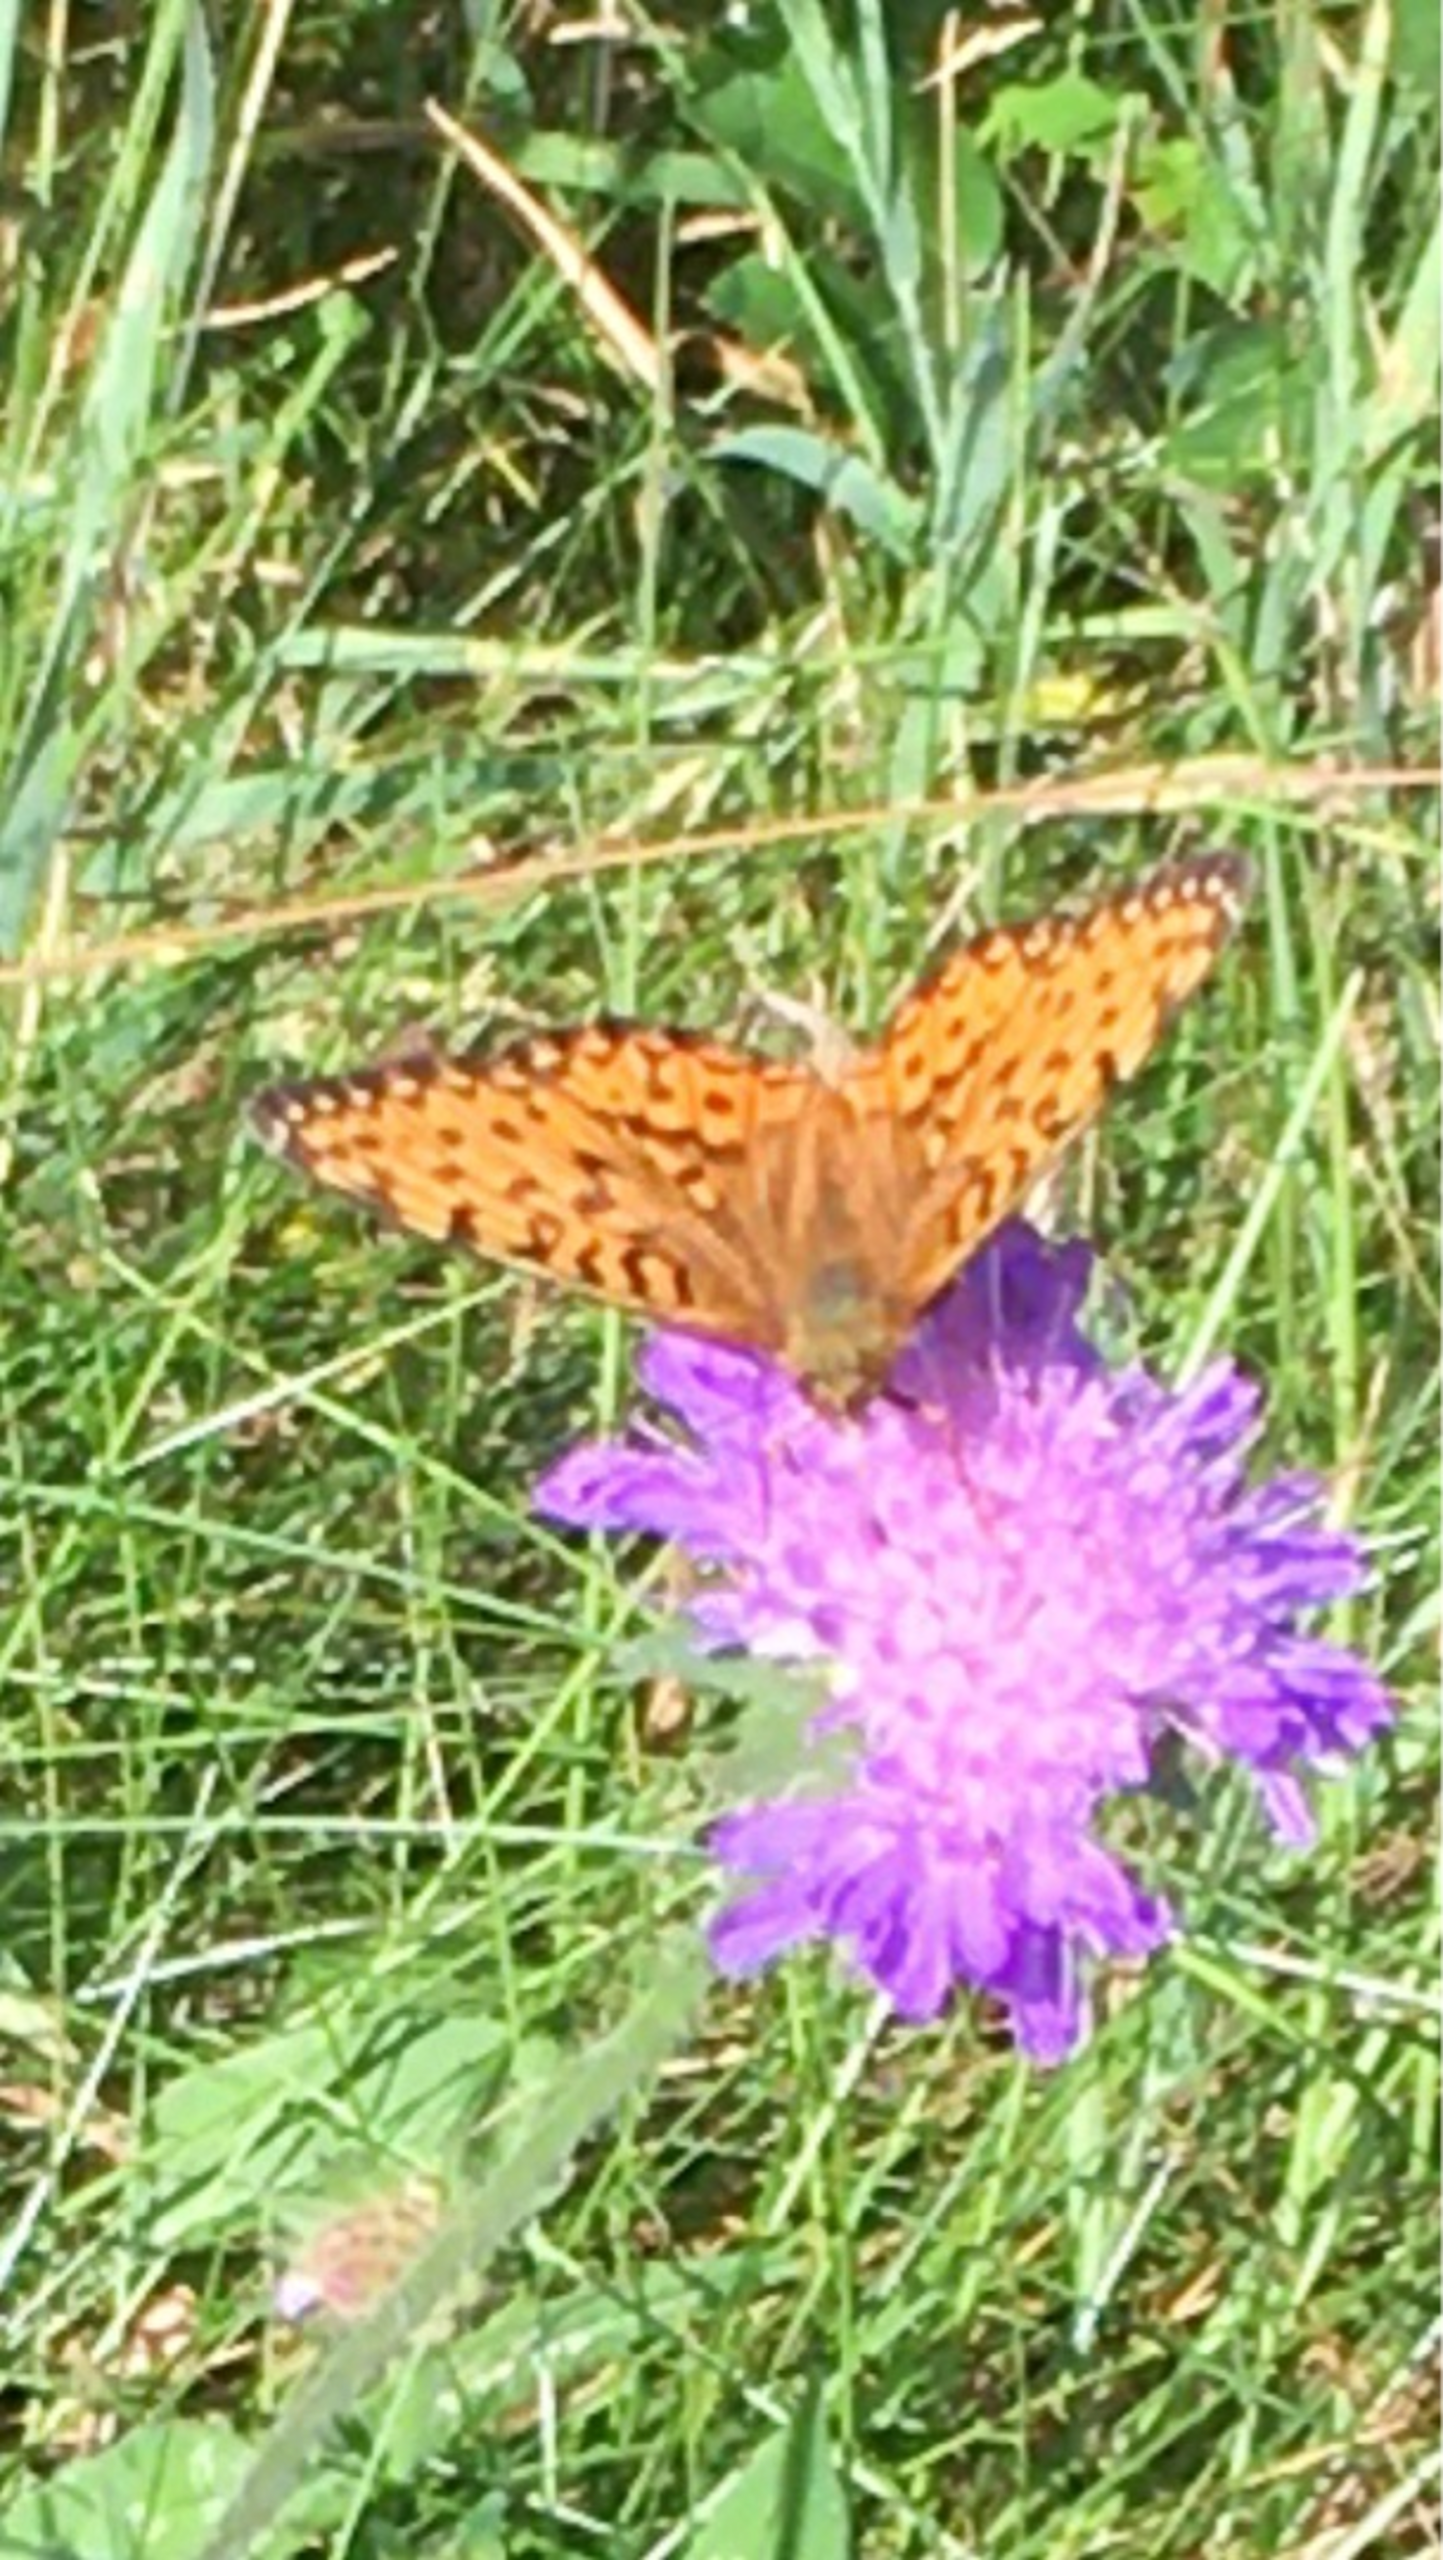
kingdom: Animalia
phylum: Arthropoda
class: Insecta
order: Lepidoptera
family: Nymphalidae
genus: Speyeria
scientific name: Speyeria aglaja
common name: Markperlemorsommerfugl
